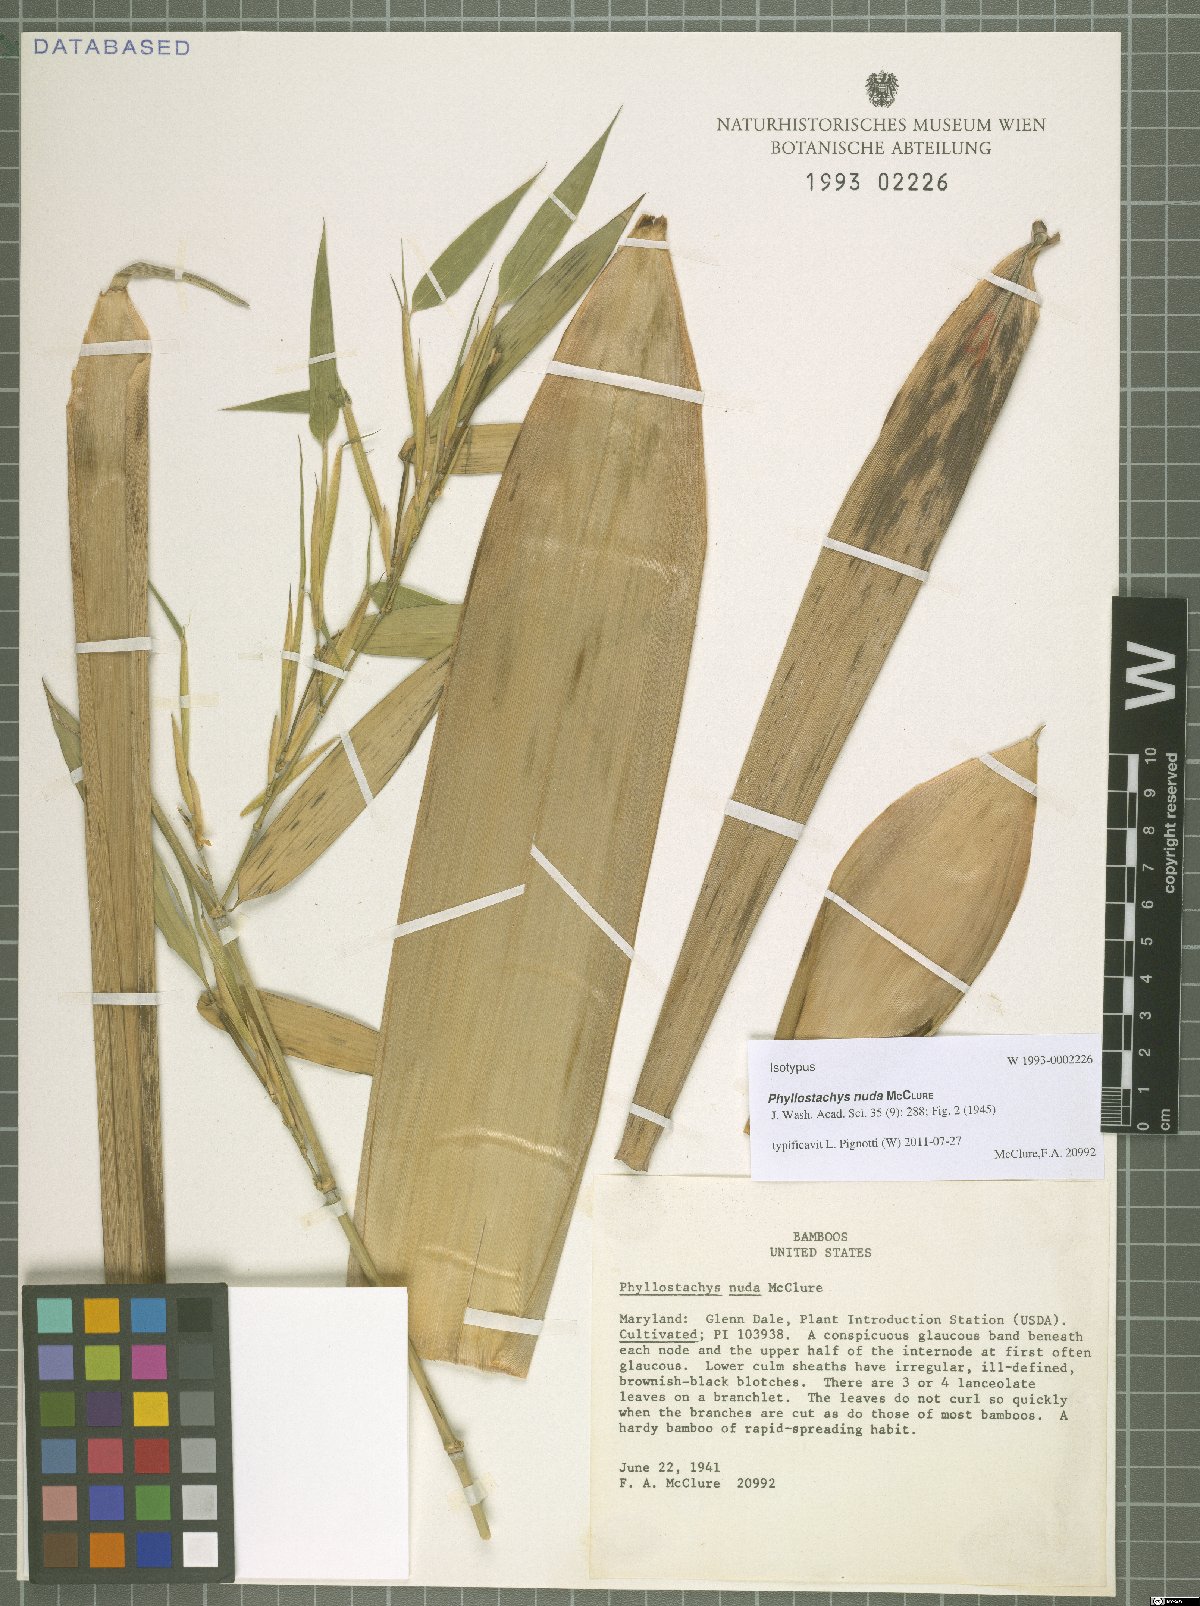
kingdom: Plantae
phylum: Tracheophyta
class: Liliopsida
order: Poales
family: Poaceae
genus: Phyllostachys
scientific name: Phyllostachys nuda
